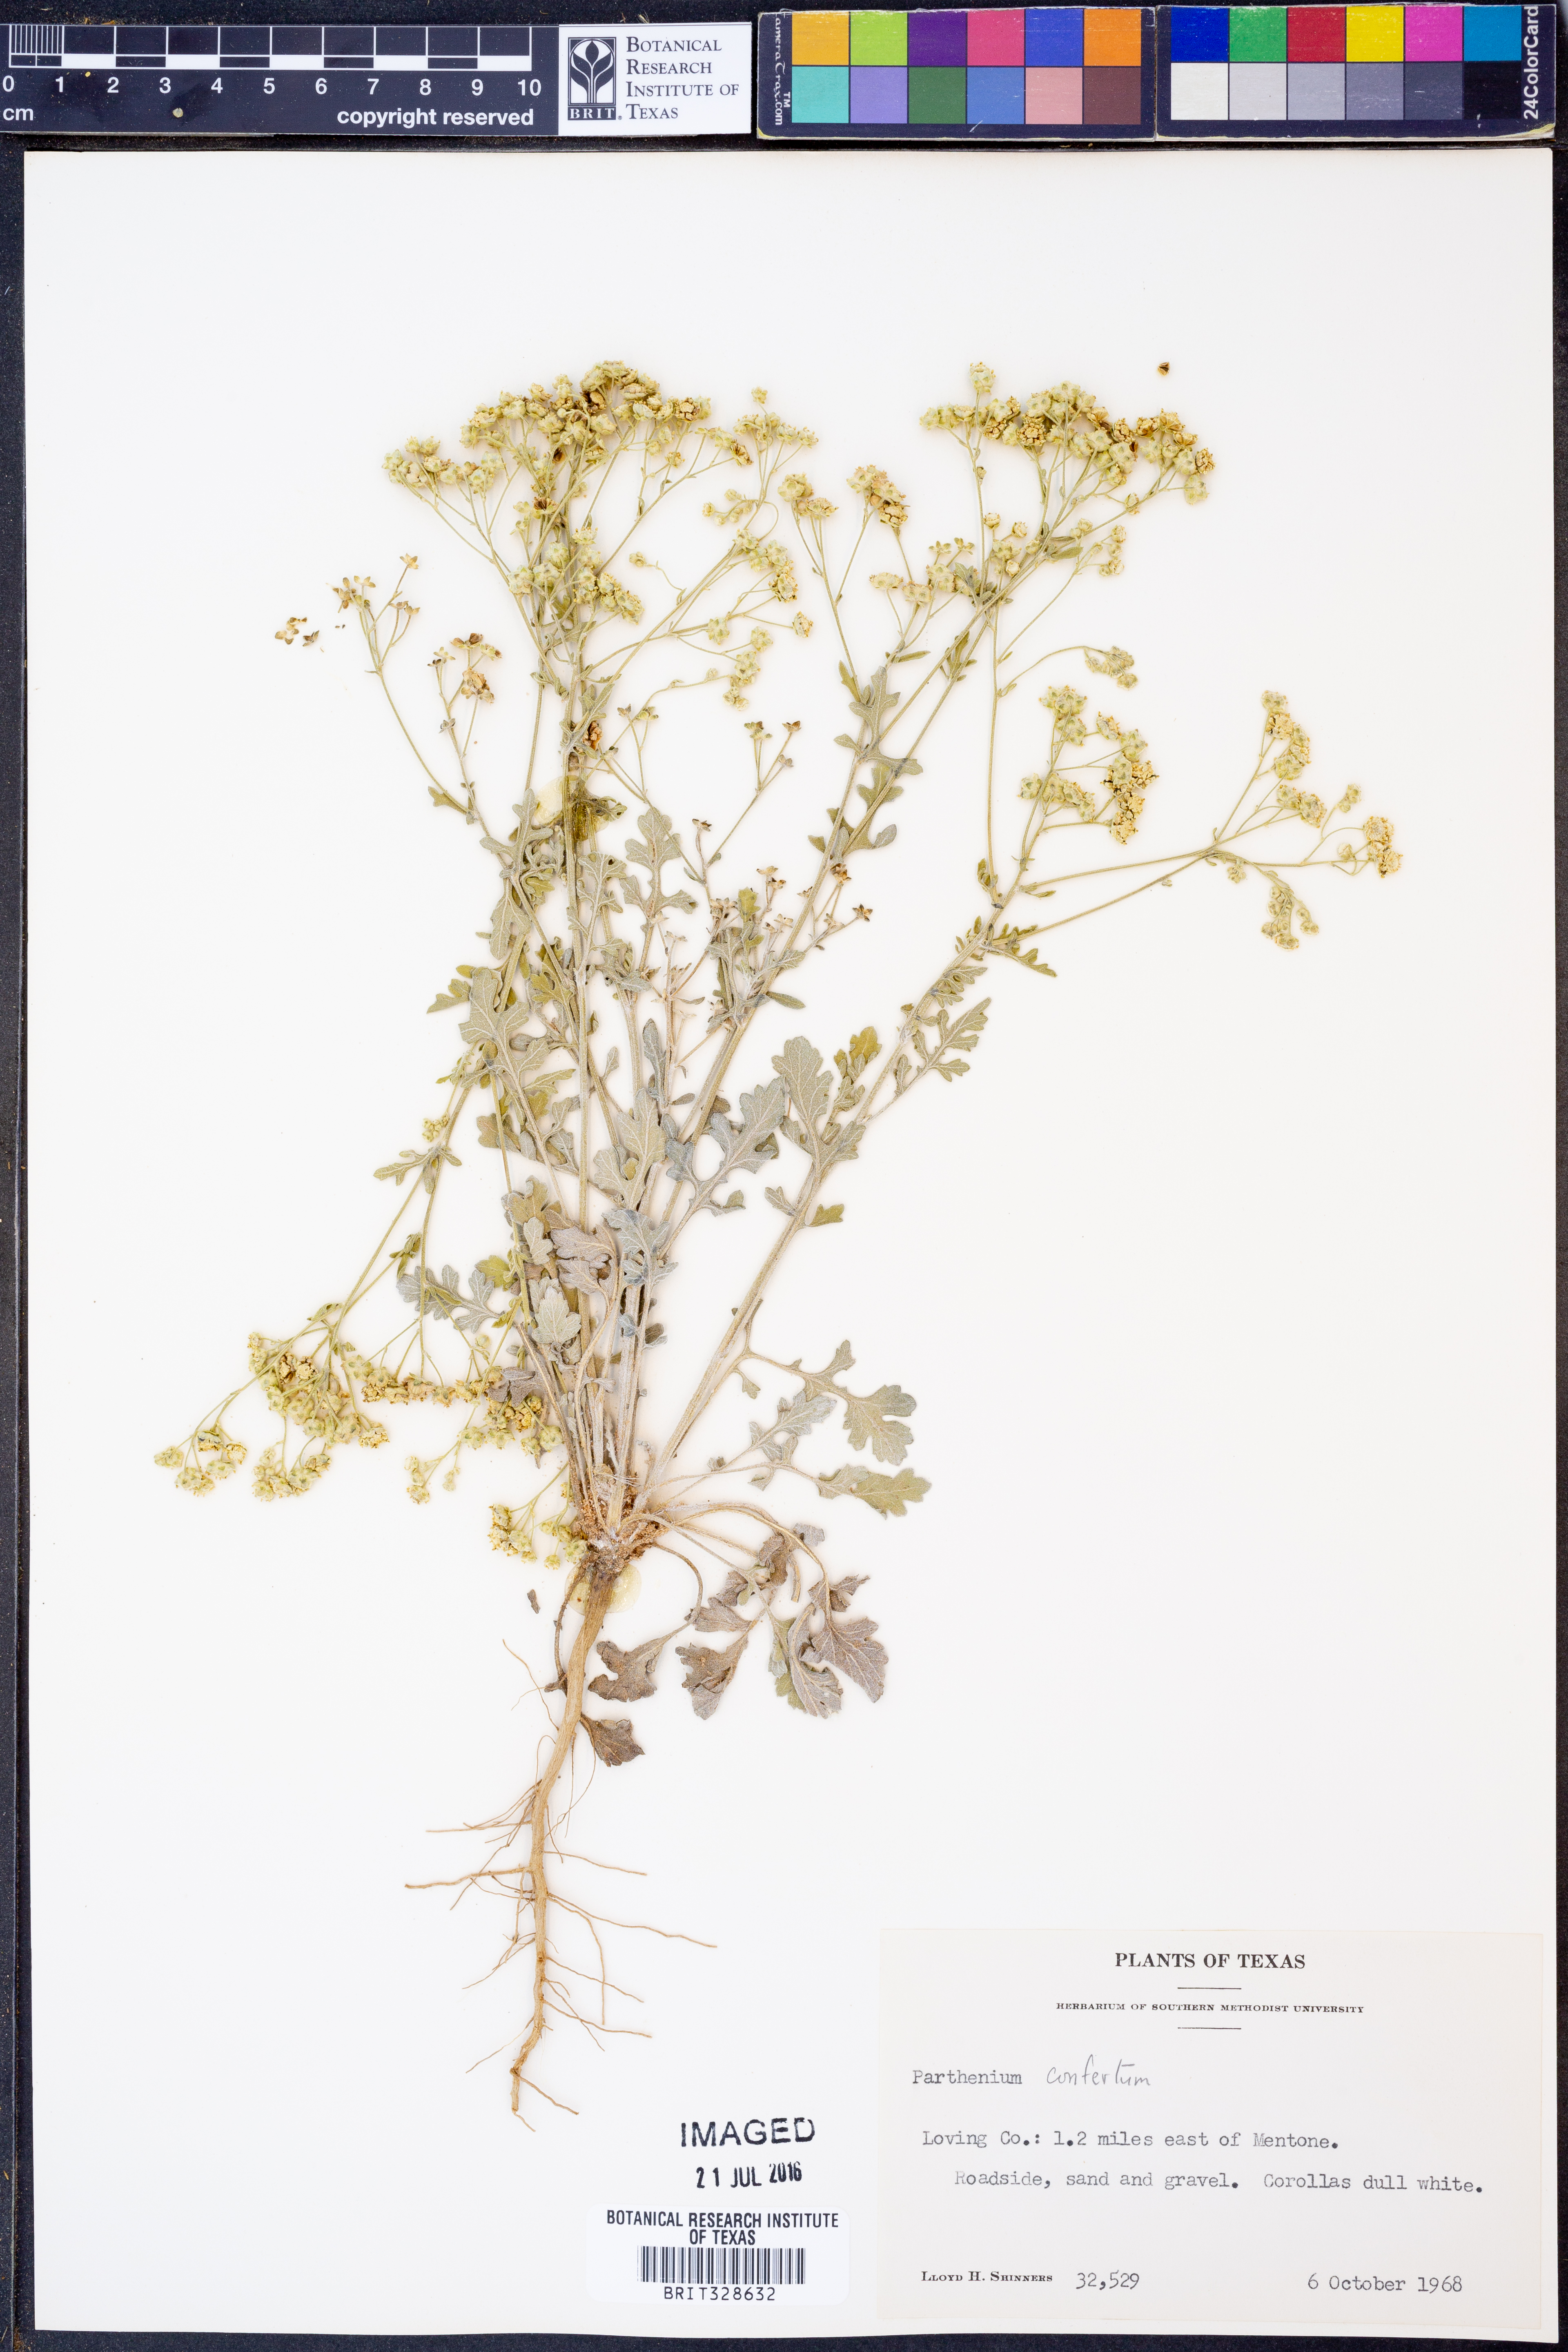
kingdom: Plantae
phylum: Tracheophyta
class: Magnoliopsida
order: Asterales
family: Asteraceae
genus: Parthenium
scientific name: Parthenium confertum
